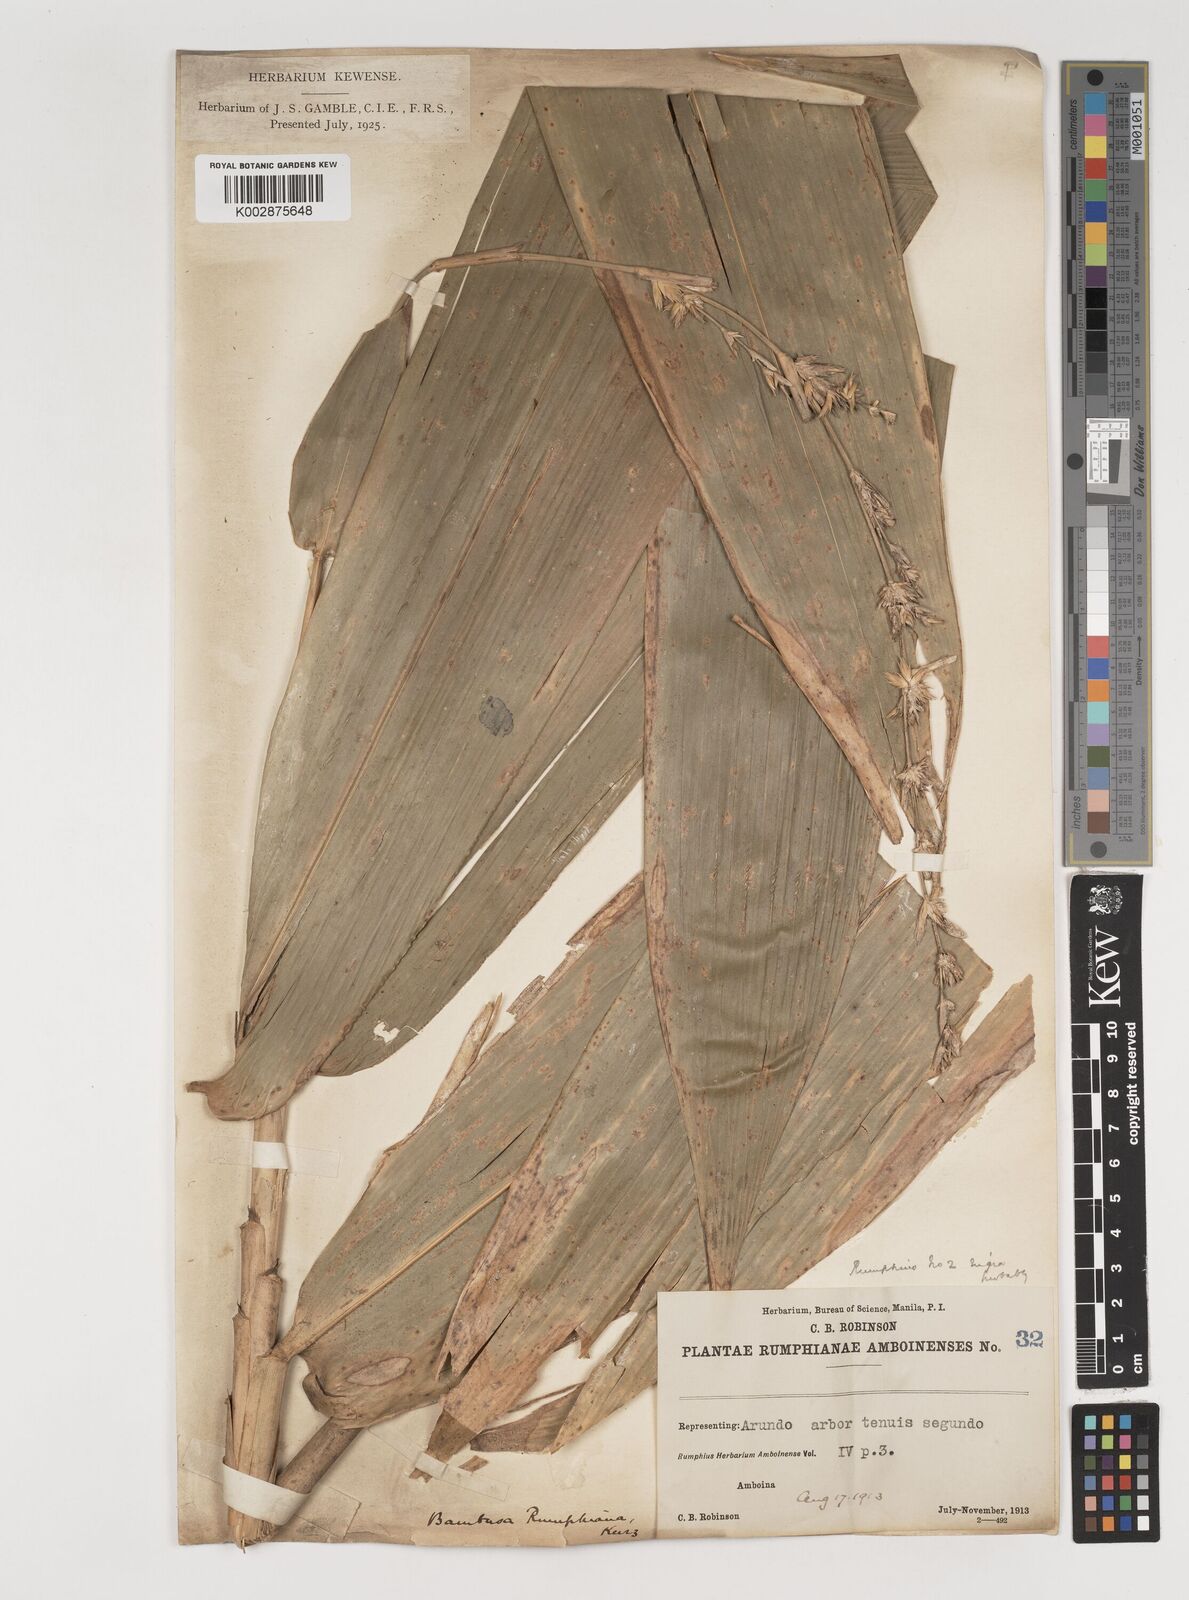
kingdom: Plantae
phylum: Tracheophyta
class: Liliopsida
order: Poales
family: Poaceae
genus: Neololeba
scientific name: Neololeba atra
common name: Cape bamboo
